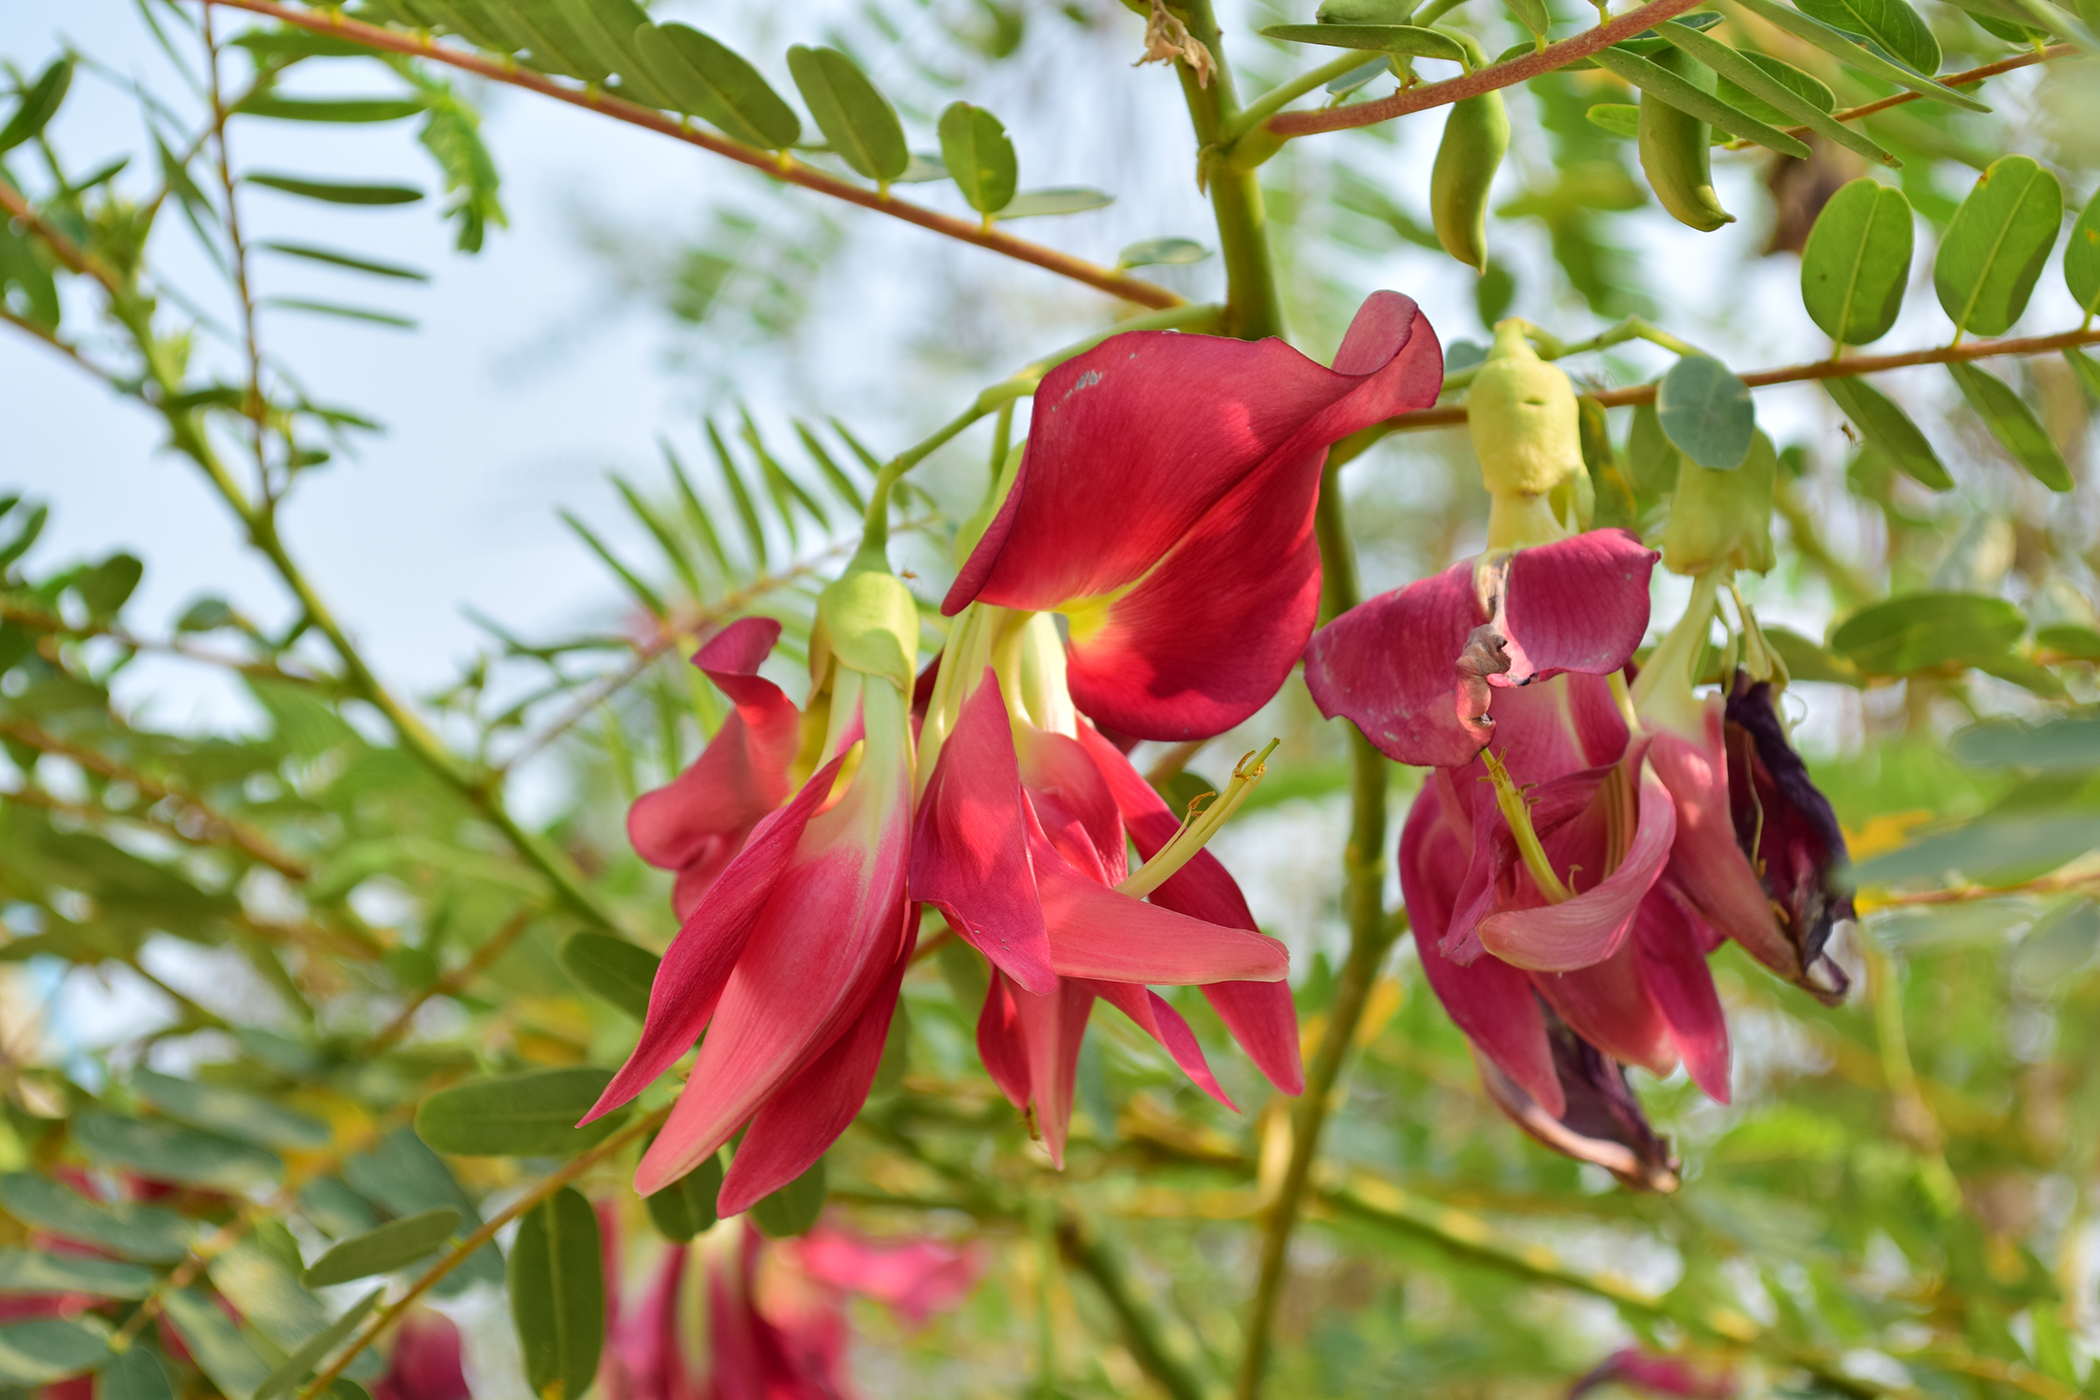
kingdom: Plantae
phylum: Tracheophyta
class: Magnoliopsida
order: Fabales
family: Fabaceae
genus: Sesbania
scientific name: Sesbania grandiflora
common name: Vegetable-hummingbird
